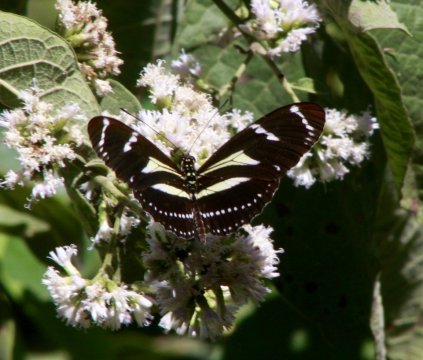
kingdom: Animalia
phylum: Arthropoda
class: Insecta
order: Lepidoptera
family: Nymphalidae
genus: Heliconius
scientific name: Heliconius peruvianus
